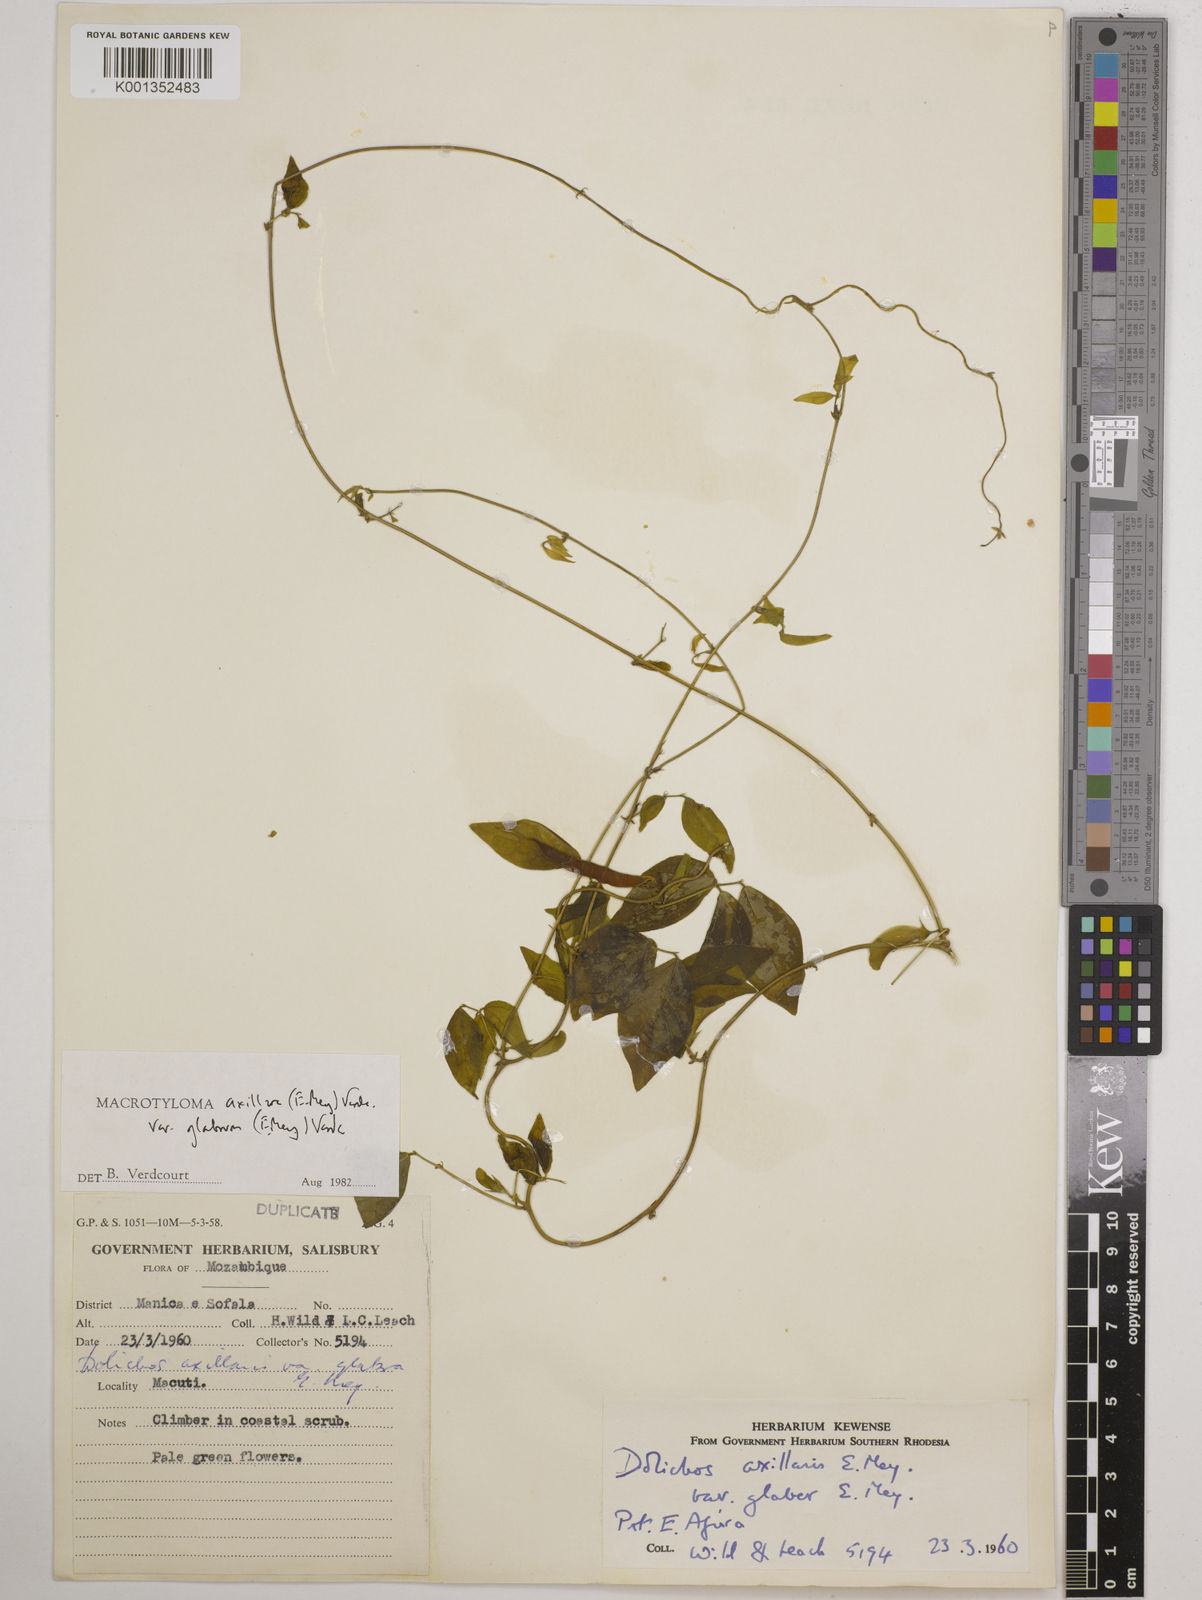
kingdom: Plantae
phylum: Tracheophyta
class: Magnoliopsida
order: Fabales
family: Fabaceae
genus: Macrotyloma
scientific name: Macrotyloma
